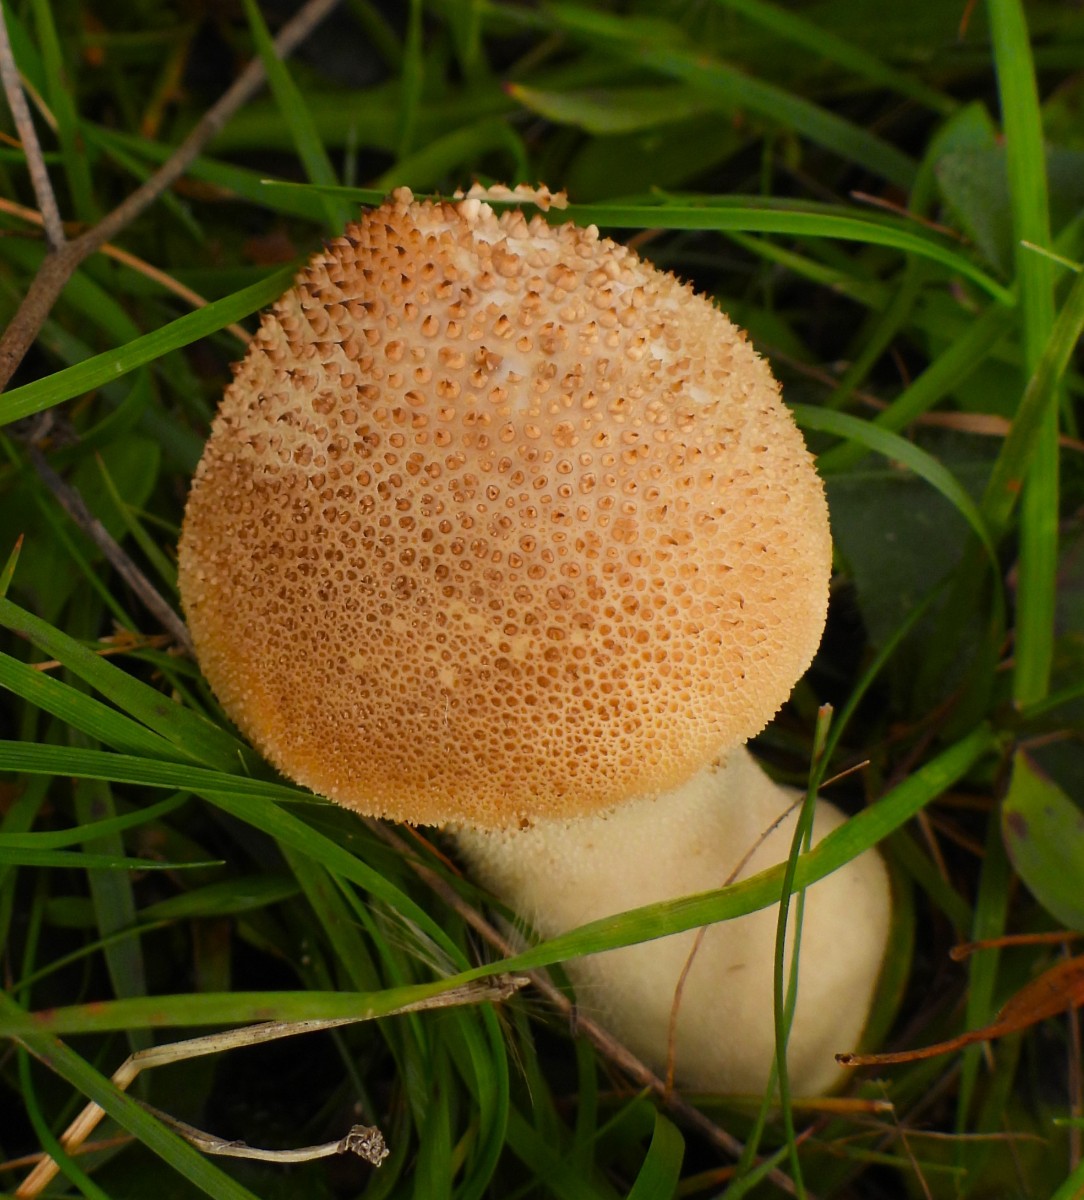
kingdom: Fungi
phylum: Basidiomycota
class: Agaricomycetes
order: Agaricales
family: Lycoperdaceae
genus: Lycoperdon
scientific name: Lycoperdon perlatum
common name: krystal-støvbold
